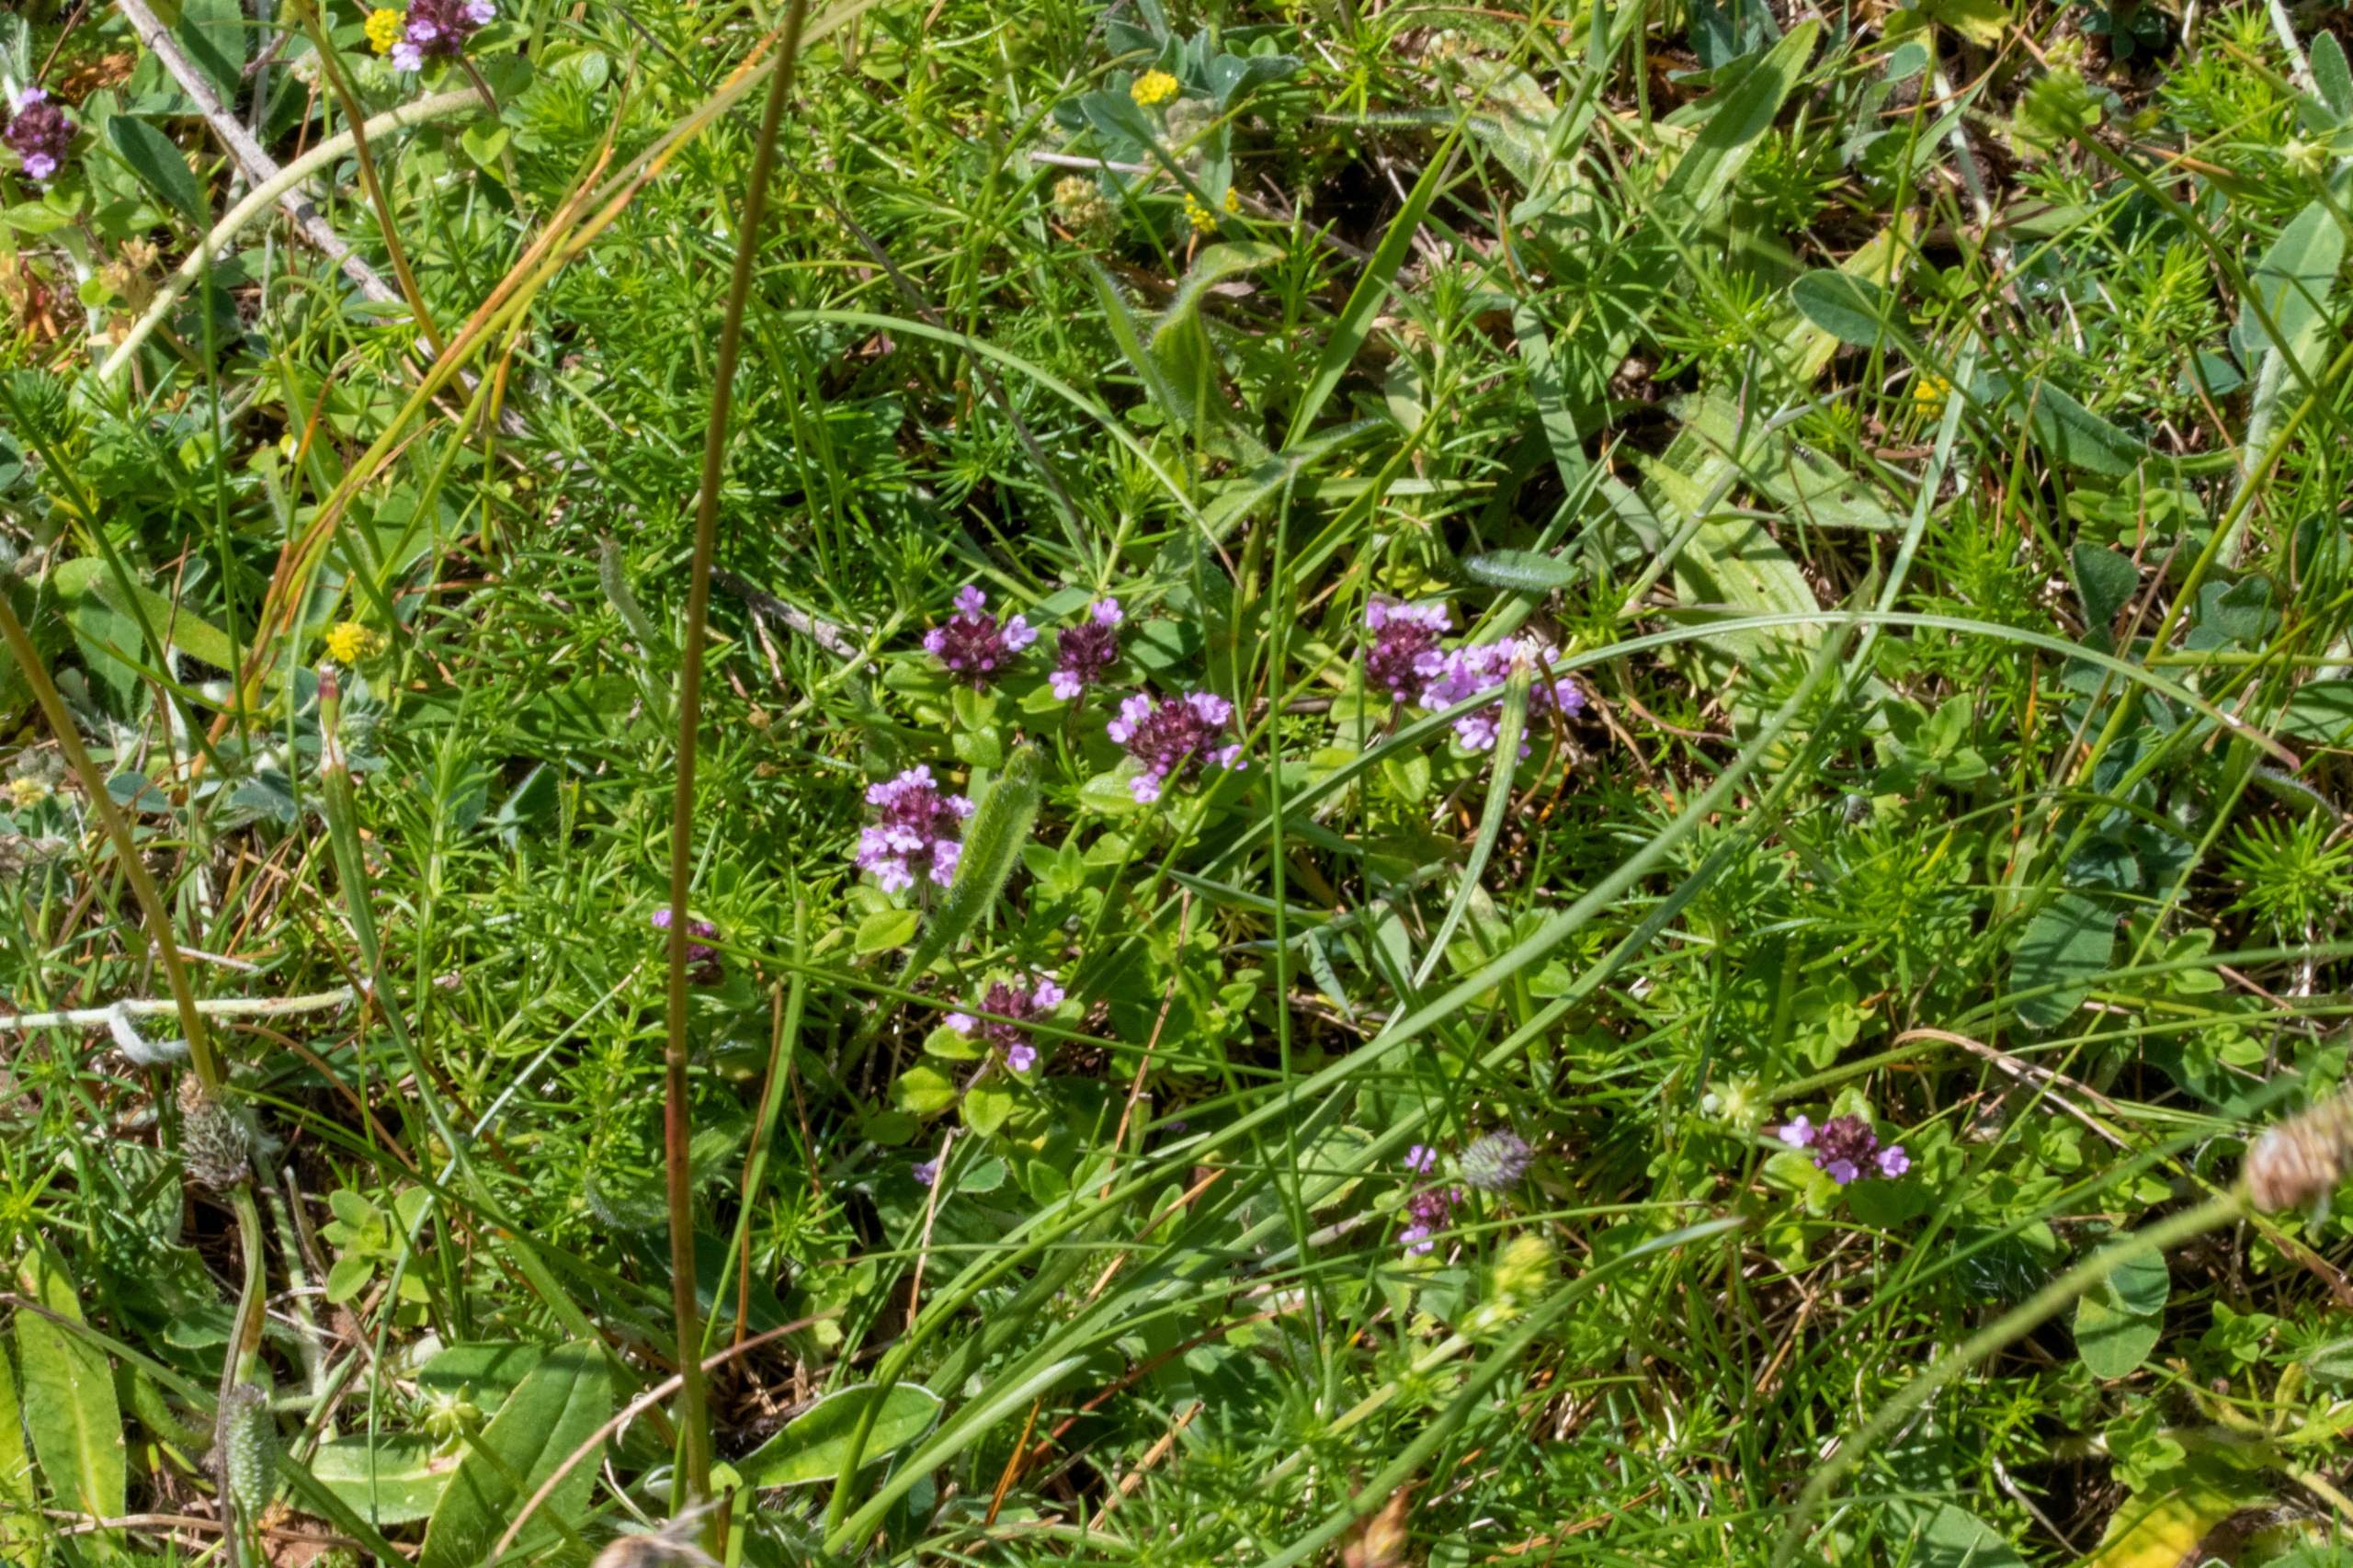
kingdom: Plantae
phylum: Tracheophyta
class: Magnoliopsida
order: Lamiales
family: Lamiaceae
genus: Prunella
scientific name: Prunella vulgaris
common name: Almindelig brunelle
